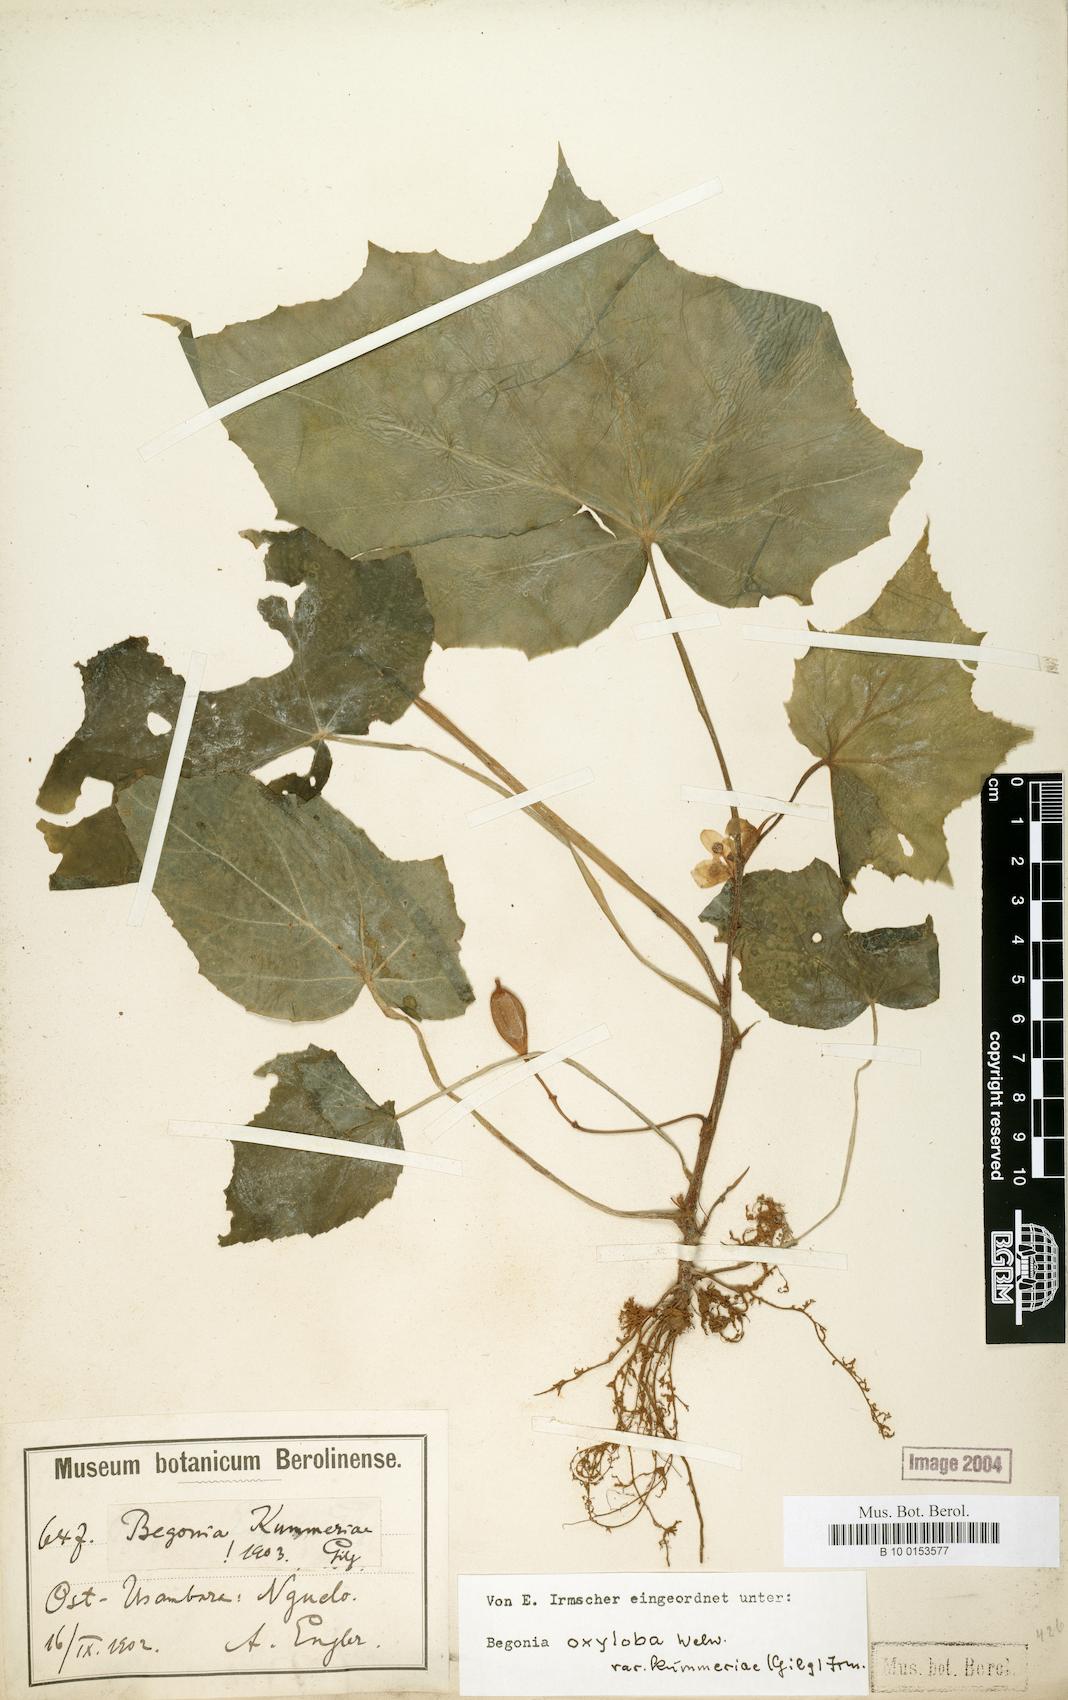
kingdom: Plantae
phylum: Tracheophyta
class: Magnoliopsida
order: Cucurbitales
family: Begoniaceae
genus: Begonia
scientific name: Begonia oxyloba
